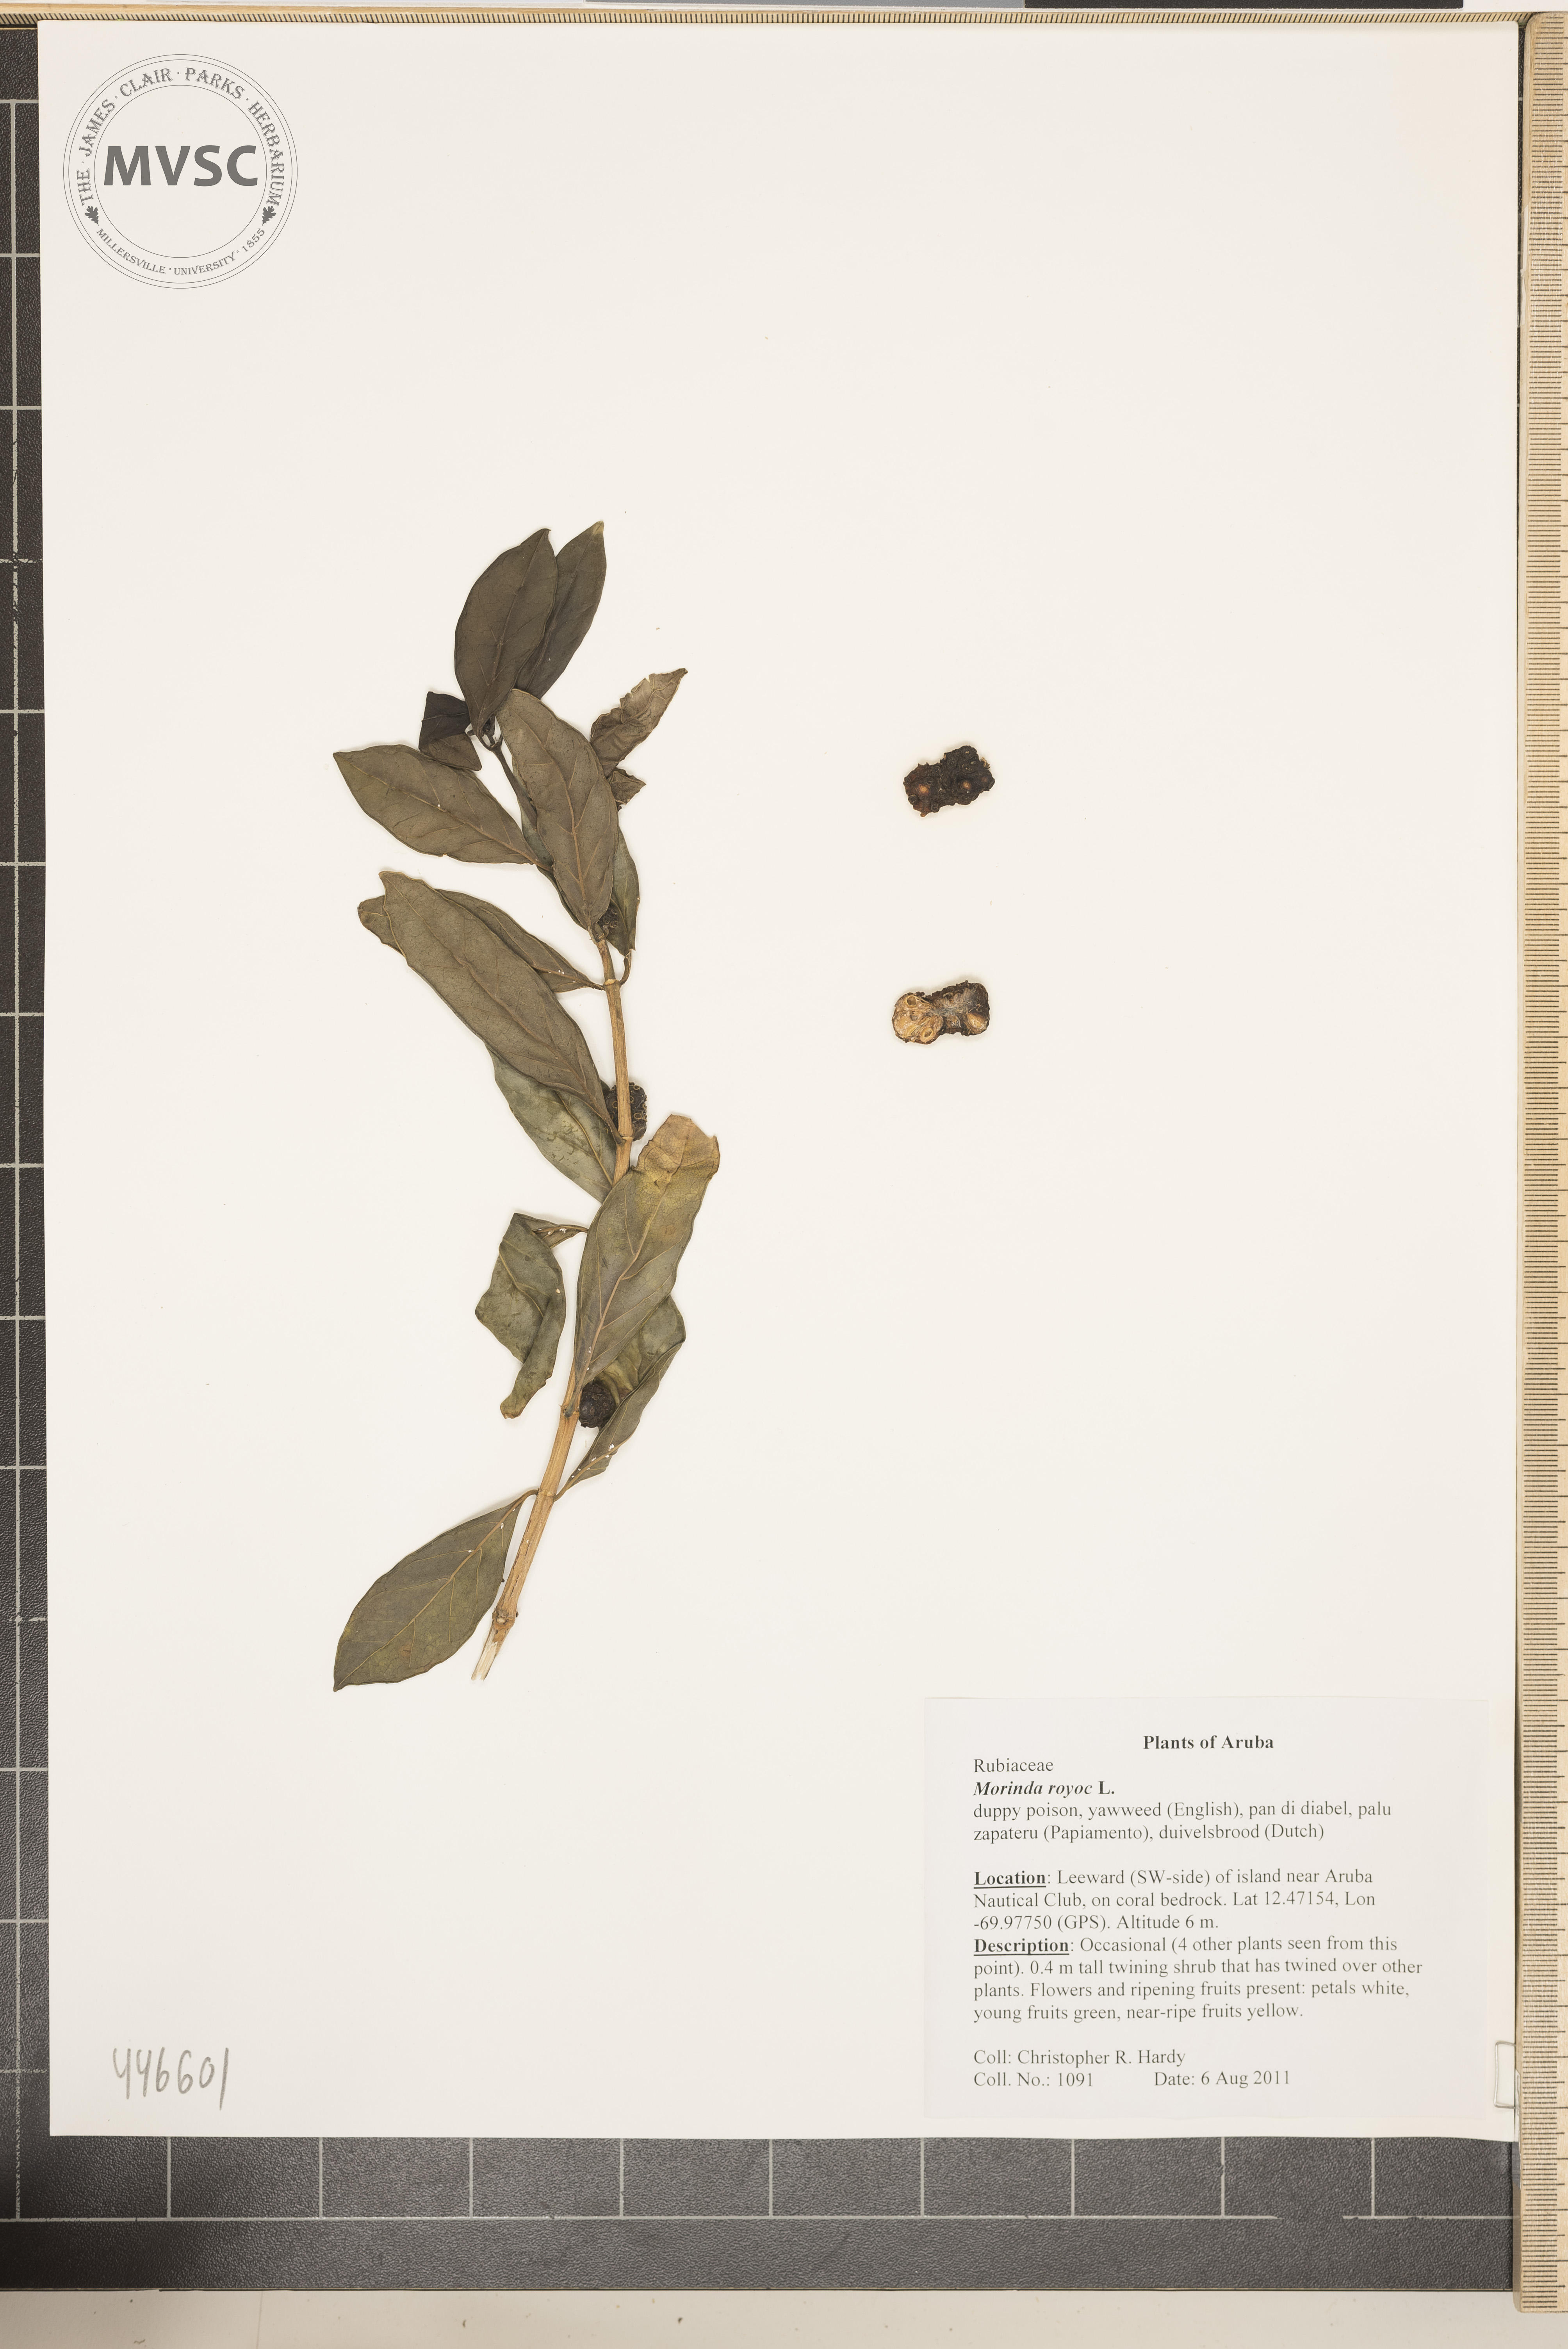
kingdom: Plantae
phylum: Tracheophyta
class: Magnoliopsida
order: Gentianales
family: Rubiaceae
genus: Morinda
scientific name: Morinda royoc
